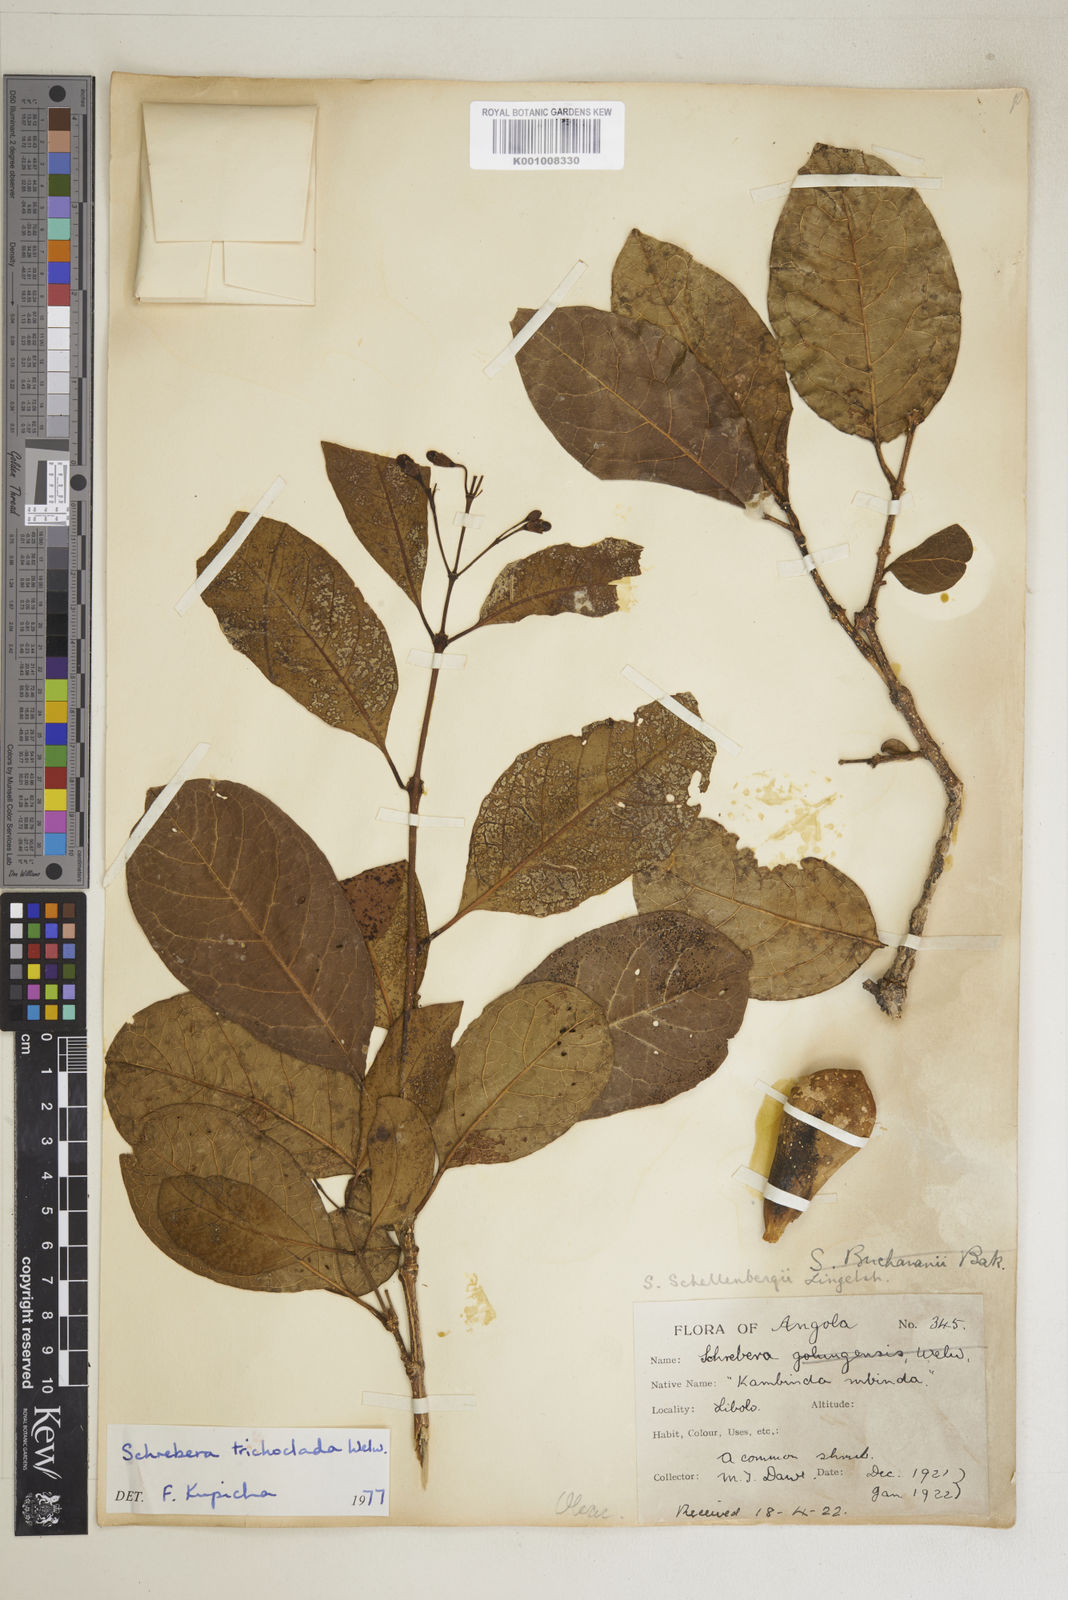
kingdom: Plantae
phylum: Tracheophyta
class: Magnoliopsida
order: Lamiales
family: Oleaceae
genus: Schrebera
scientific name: Schrebera trichoclada
